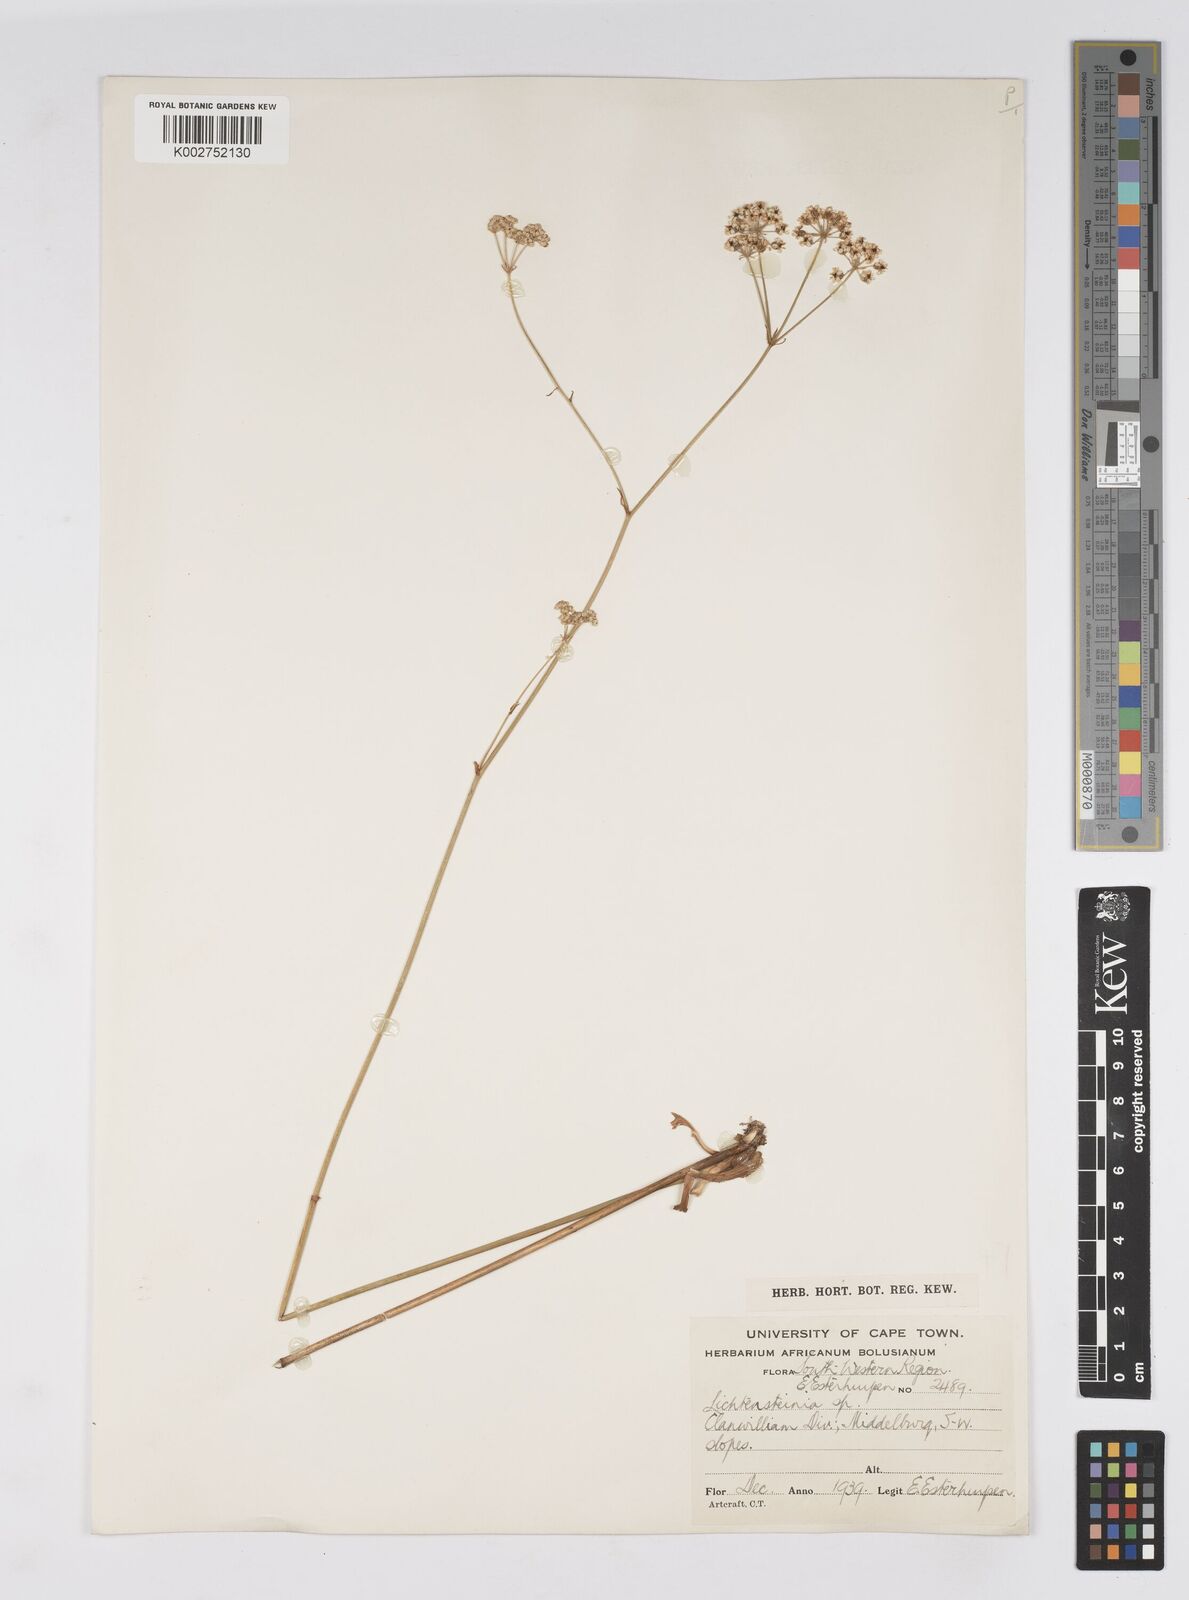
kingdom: Plantae
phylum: Tracheophyta
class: Magnoliopsida
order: Apiales
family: Apiaceae
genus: Lichtensteinia
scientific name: Lichtensteinia obscura
